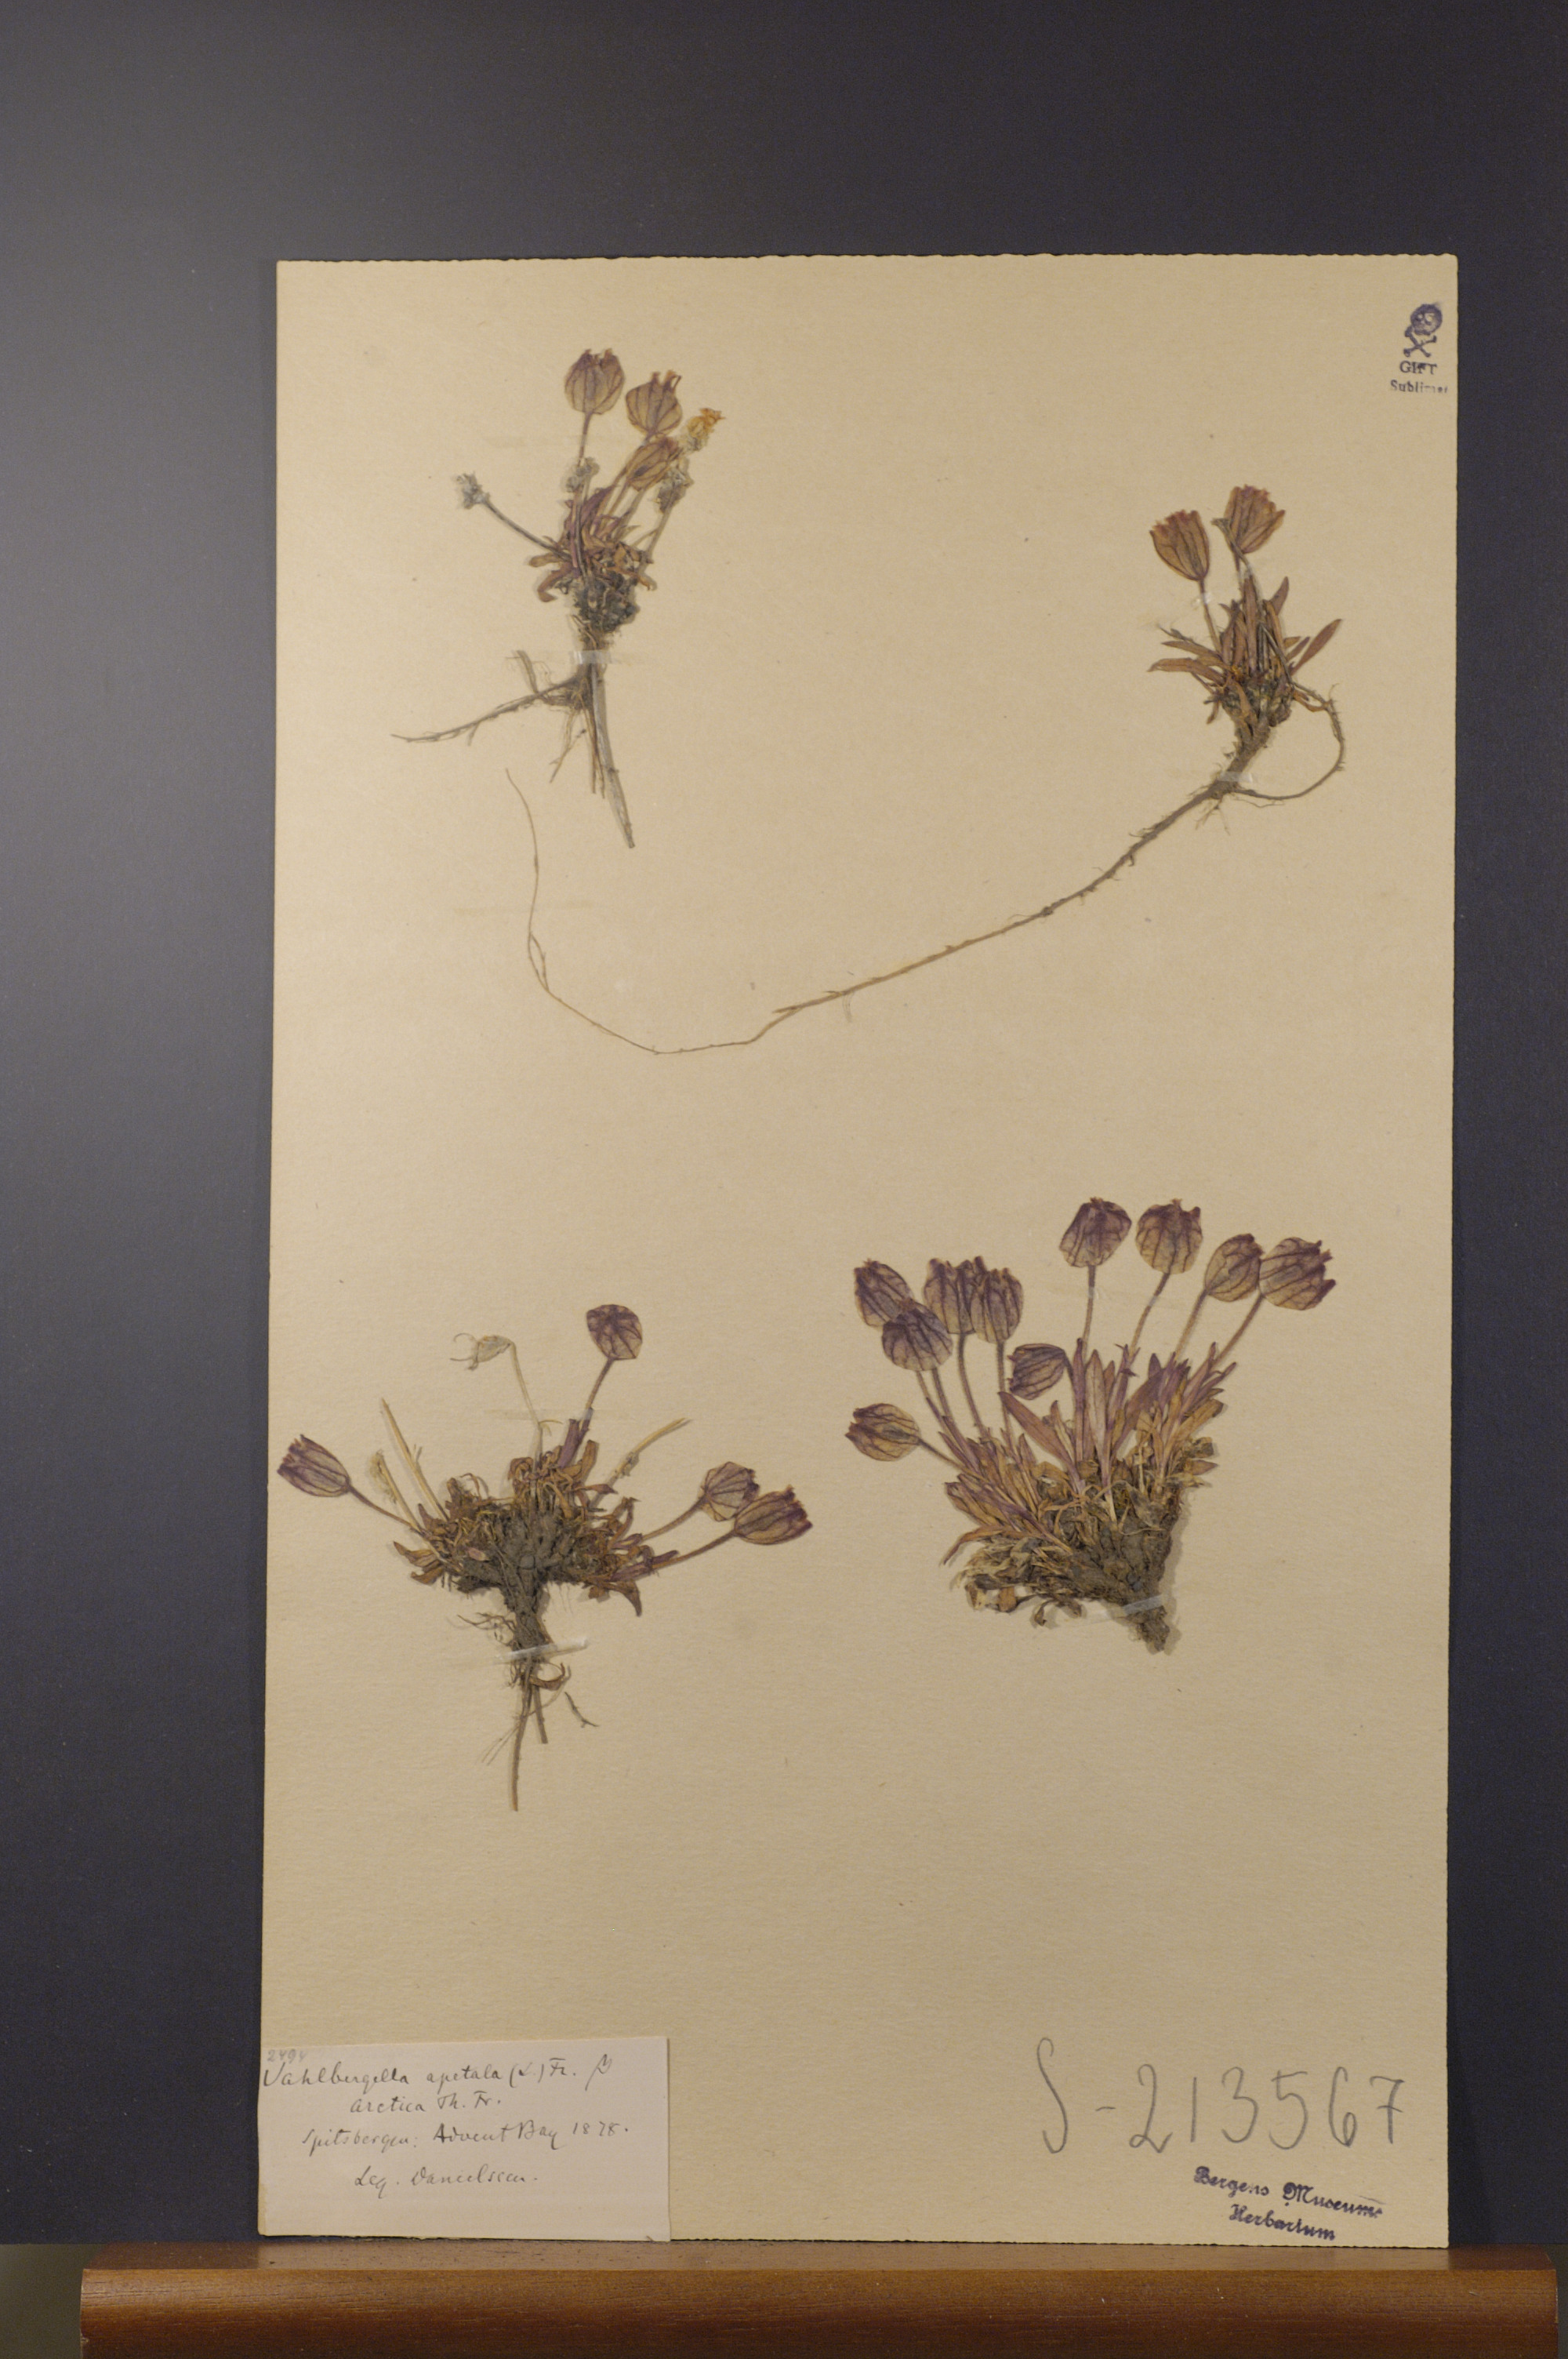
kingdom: Plantae
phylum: Tracheophyta
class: Magnoliopsida
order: Caryophyllales
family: Caryophyllaceae
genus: Silene
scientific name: Silene uralensis
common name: Nodding campion
